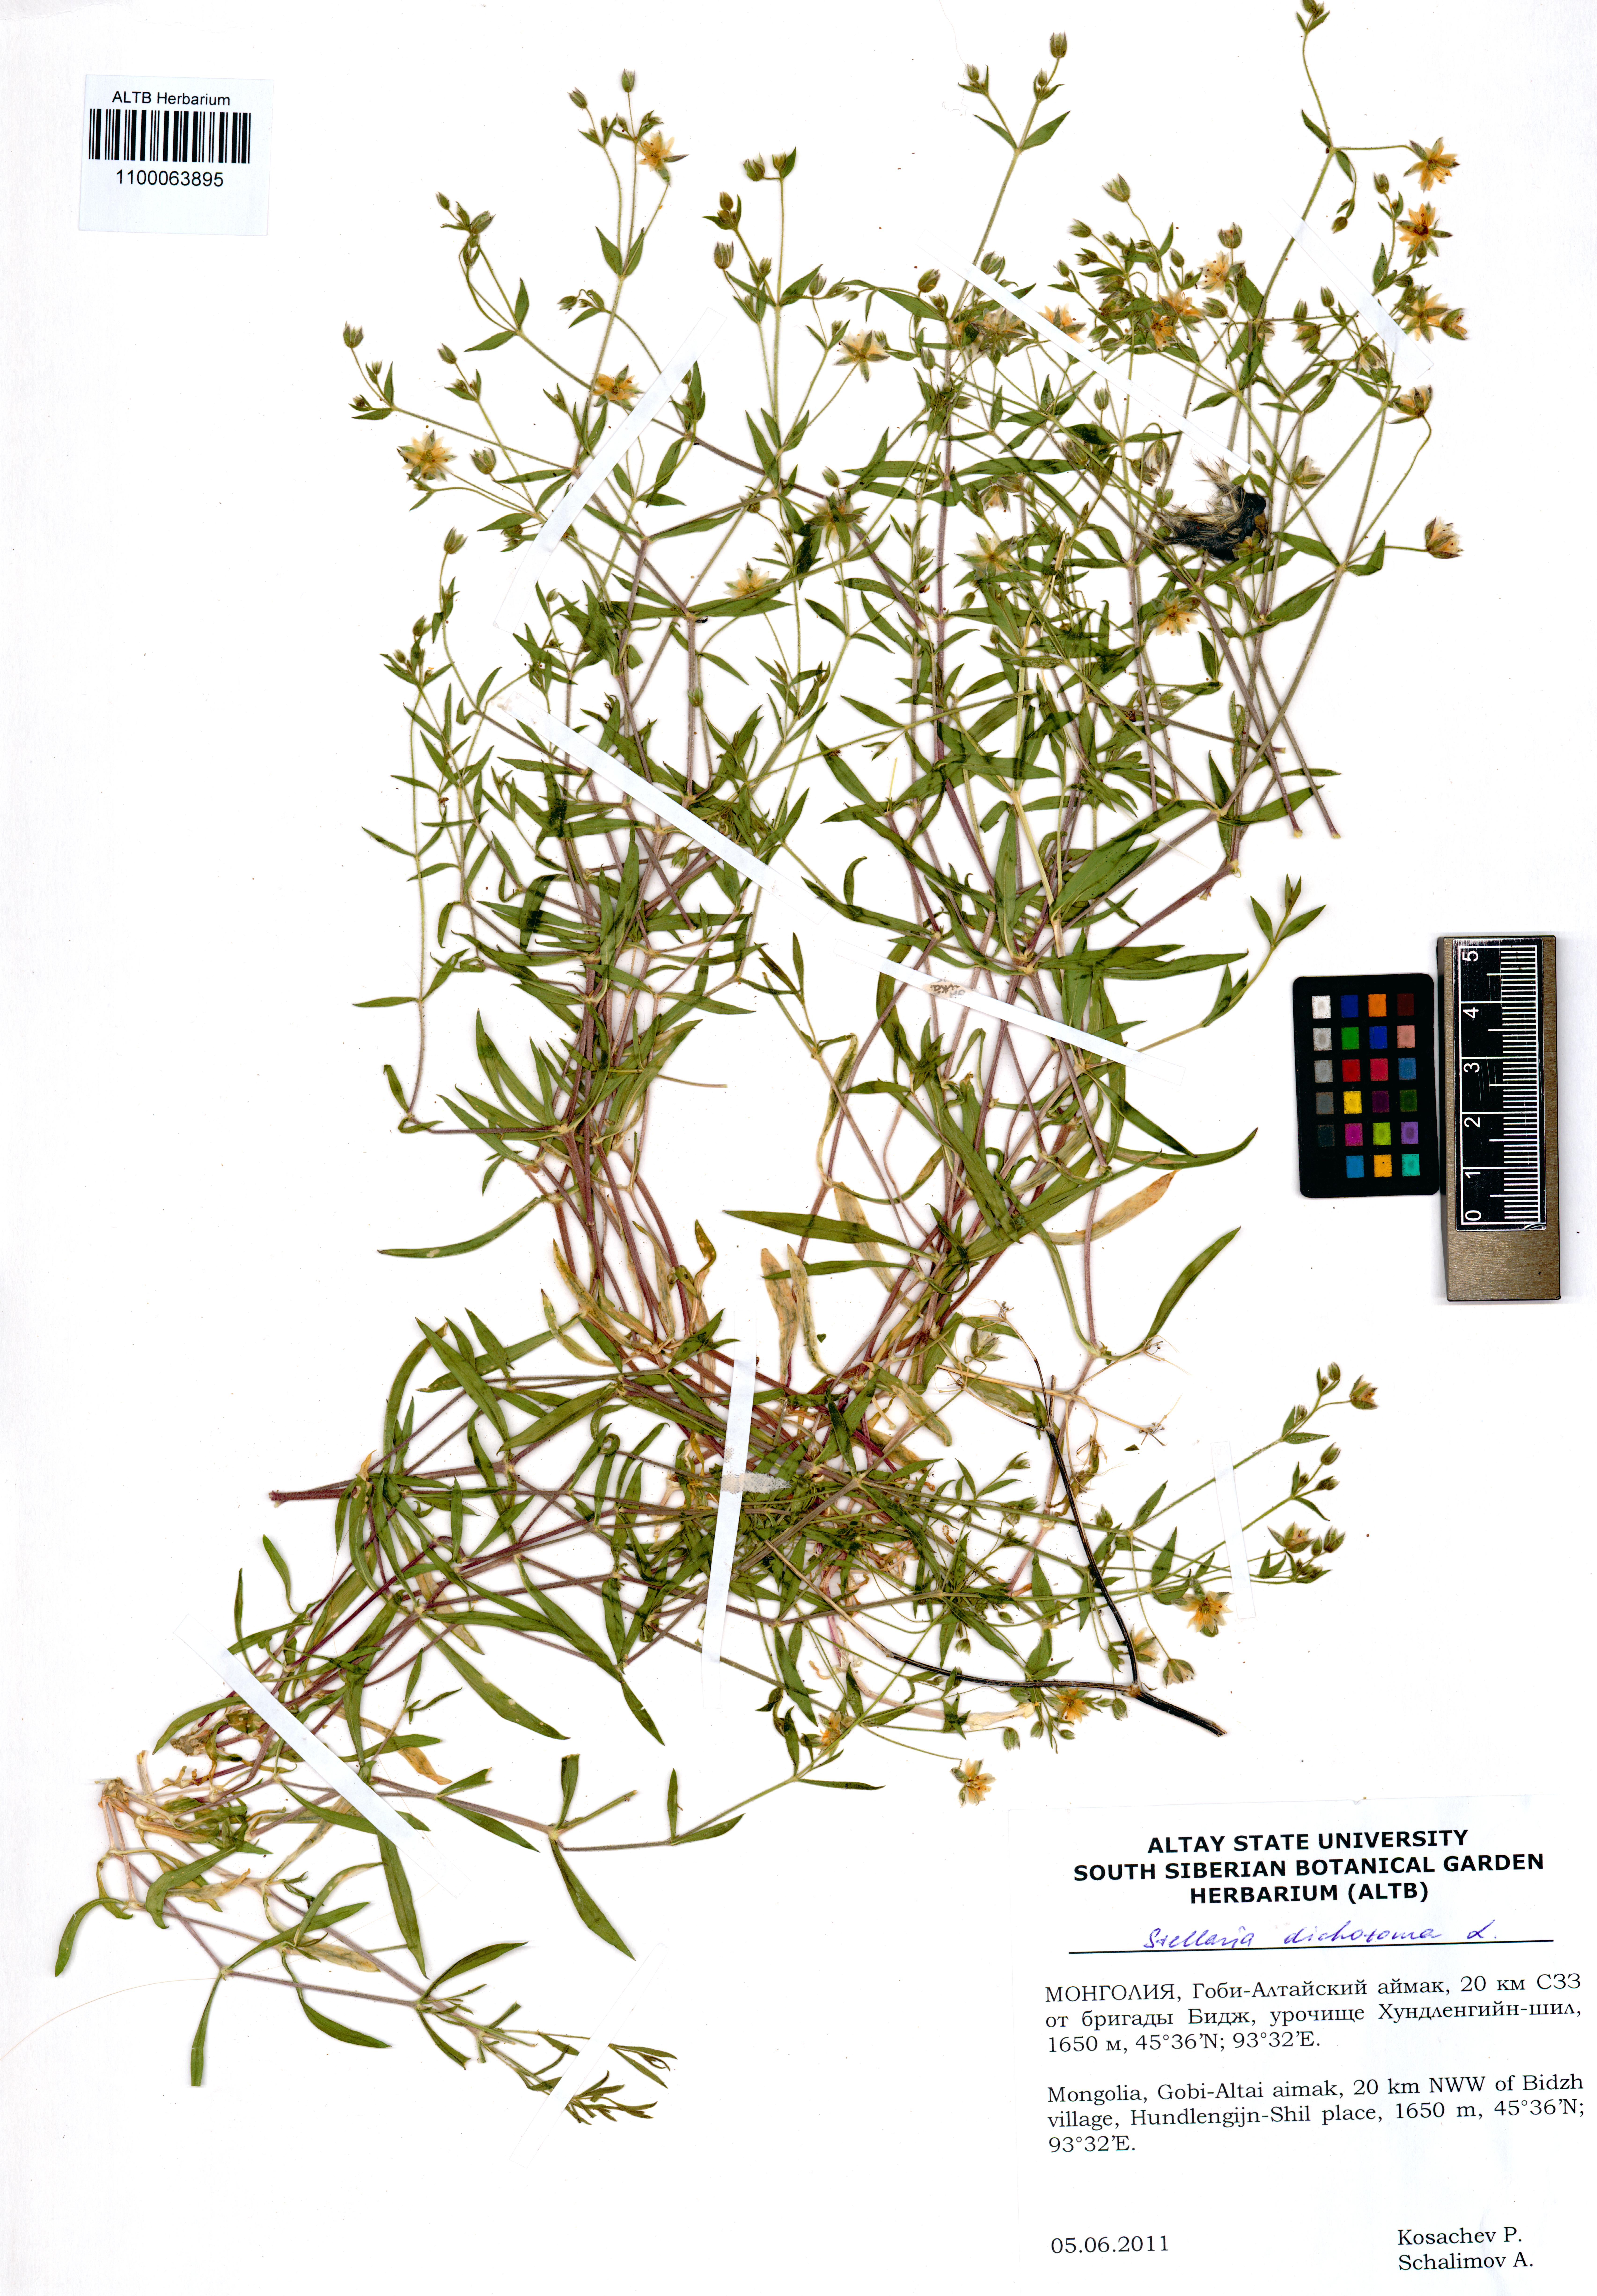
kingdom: Plantae
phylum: Tracheophyta
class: Magnoliopsida
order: Caryophyllales
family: Caryophyllaceae
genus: Mesostemma
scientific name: Mesostemma dichotomum
